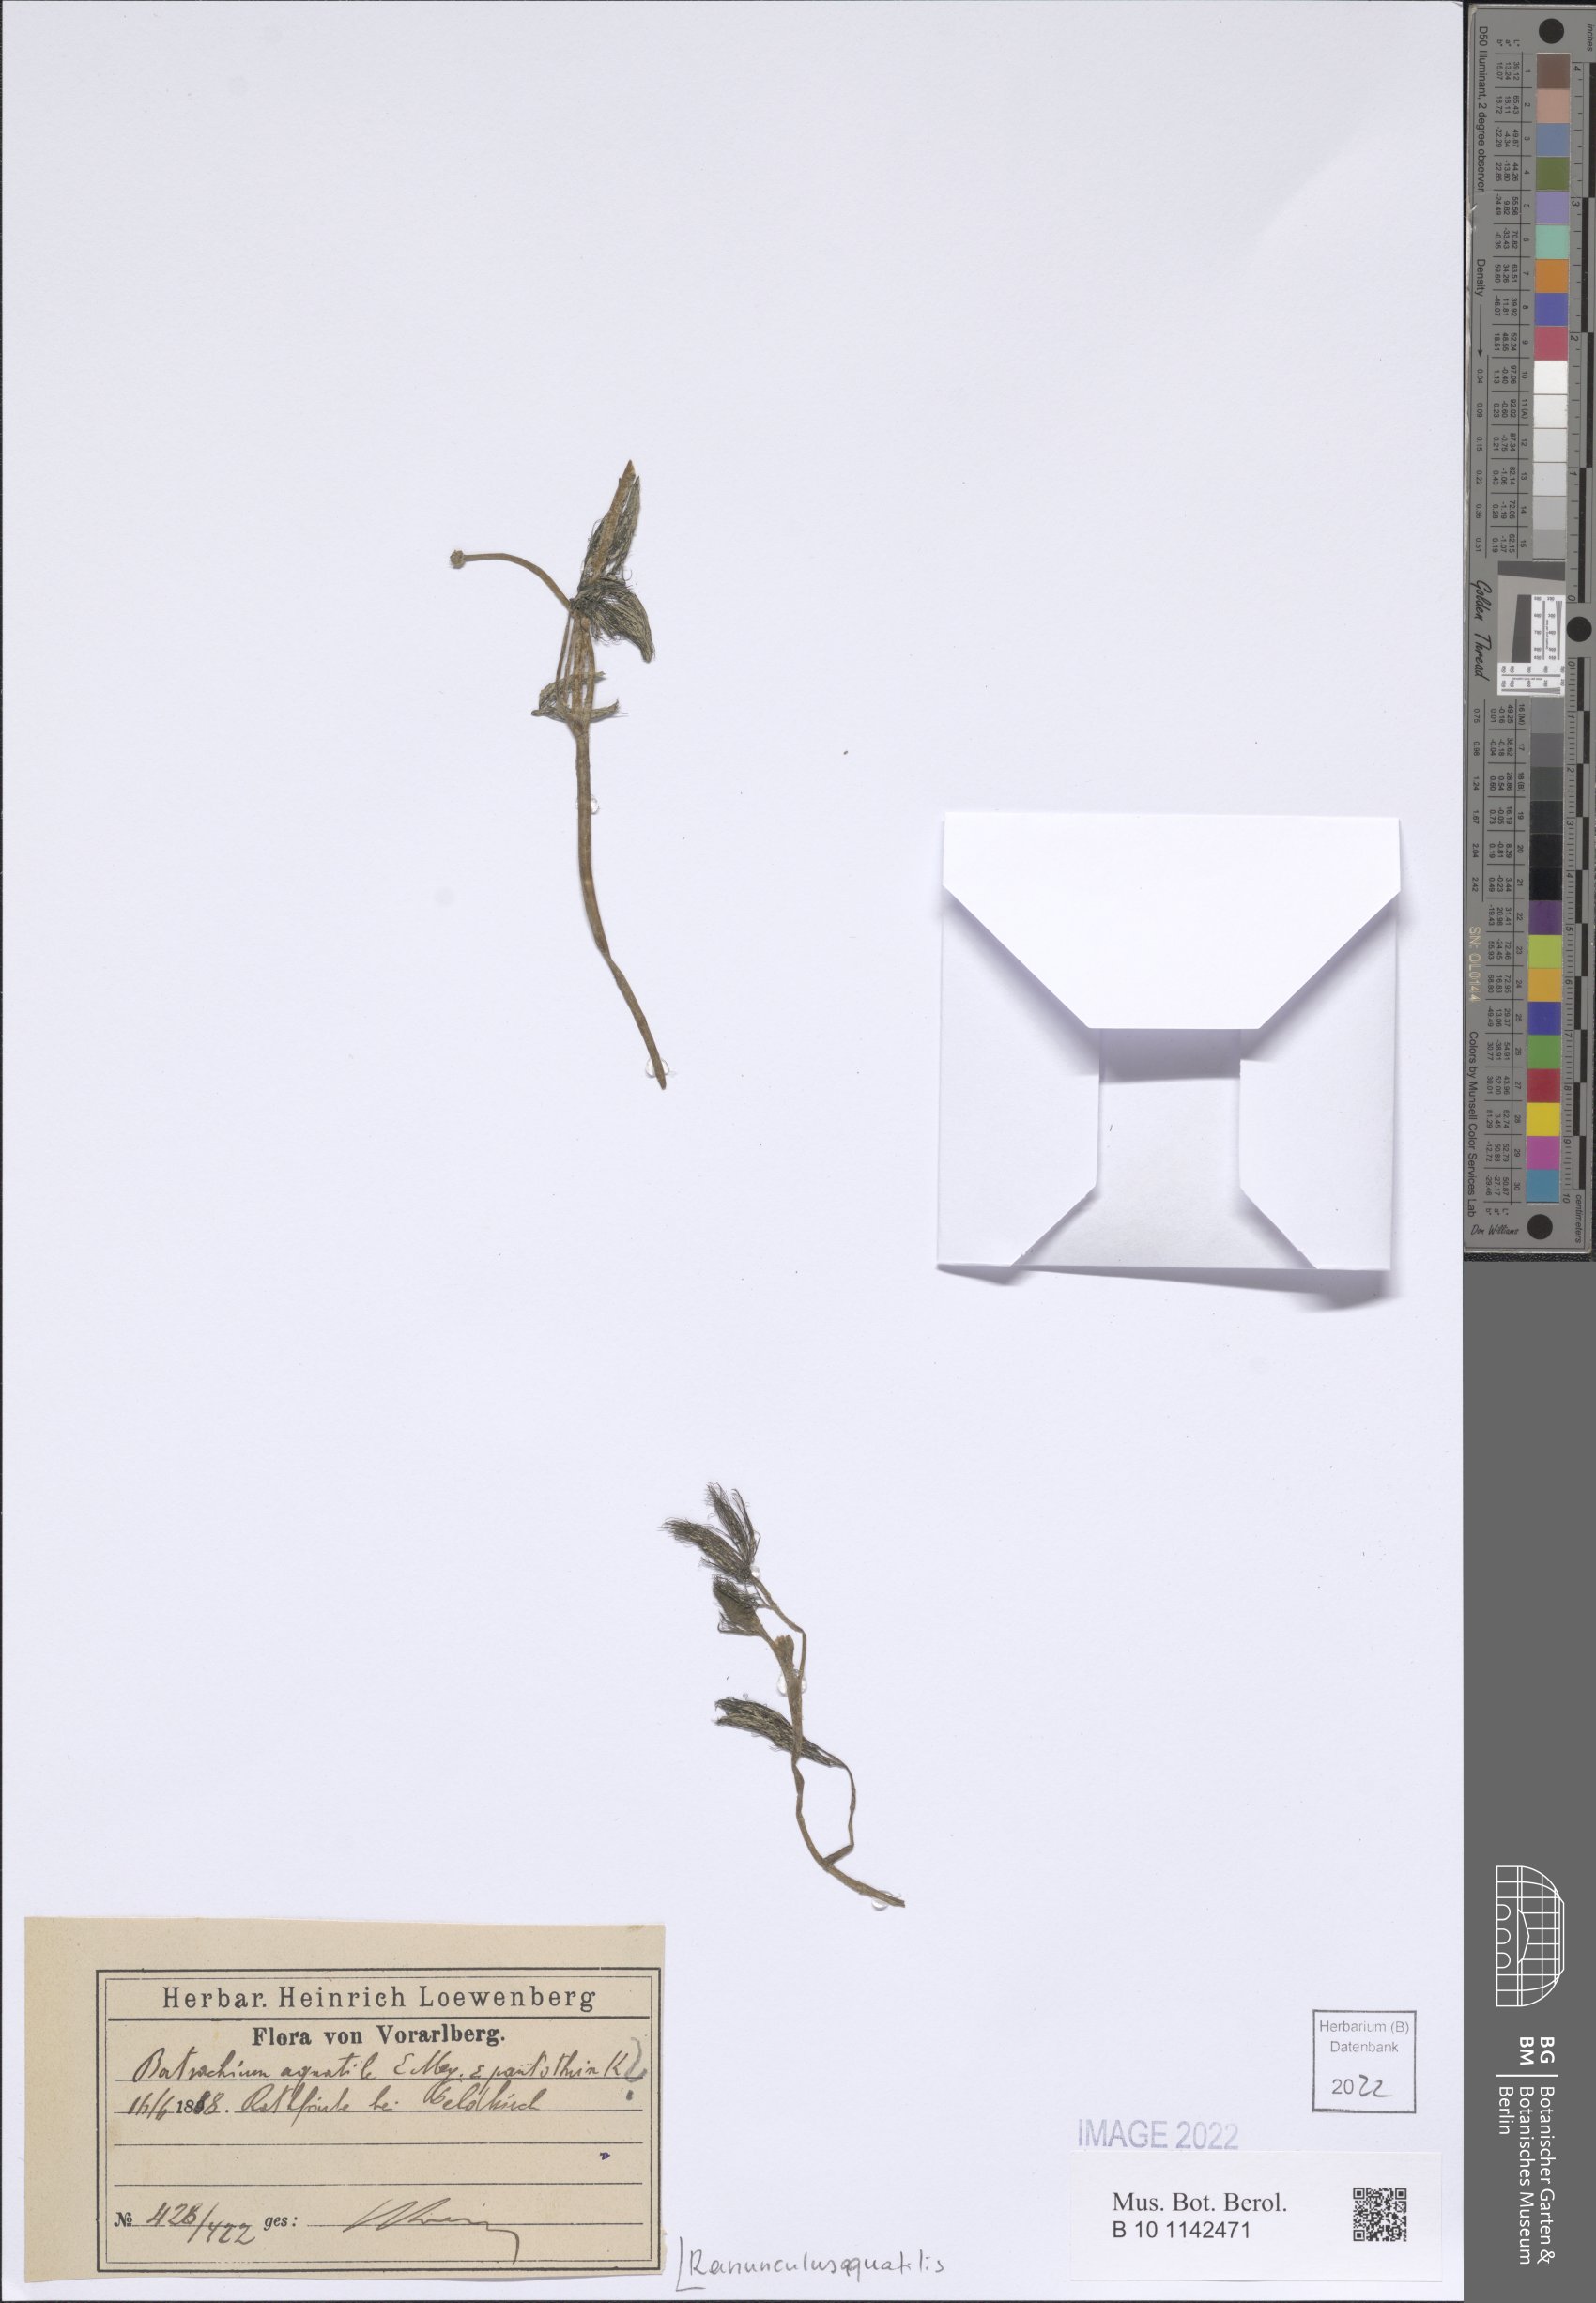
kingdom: Plantae
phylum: Tracheophyta
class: Magnoliopsida
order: Ranunculales
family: Ranunculaceae
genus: Ranunculus
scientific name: Ranunculus aquatilis
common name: Common water-crowfoot
